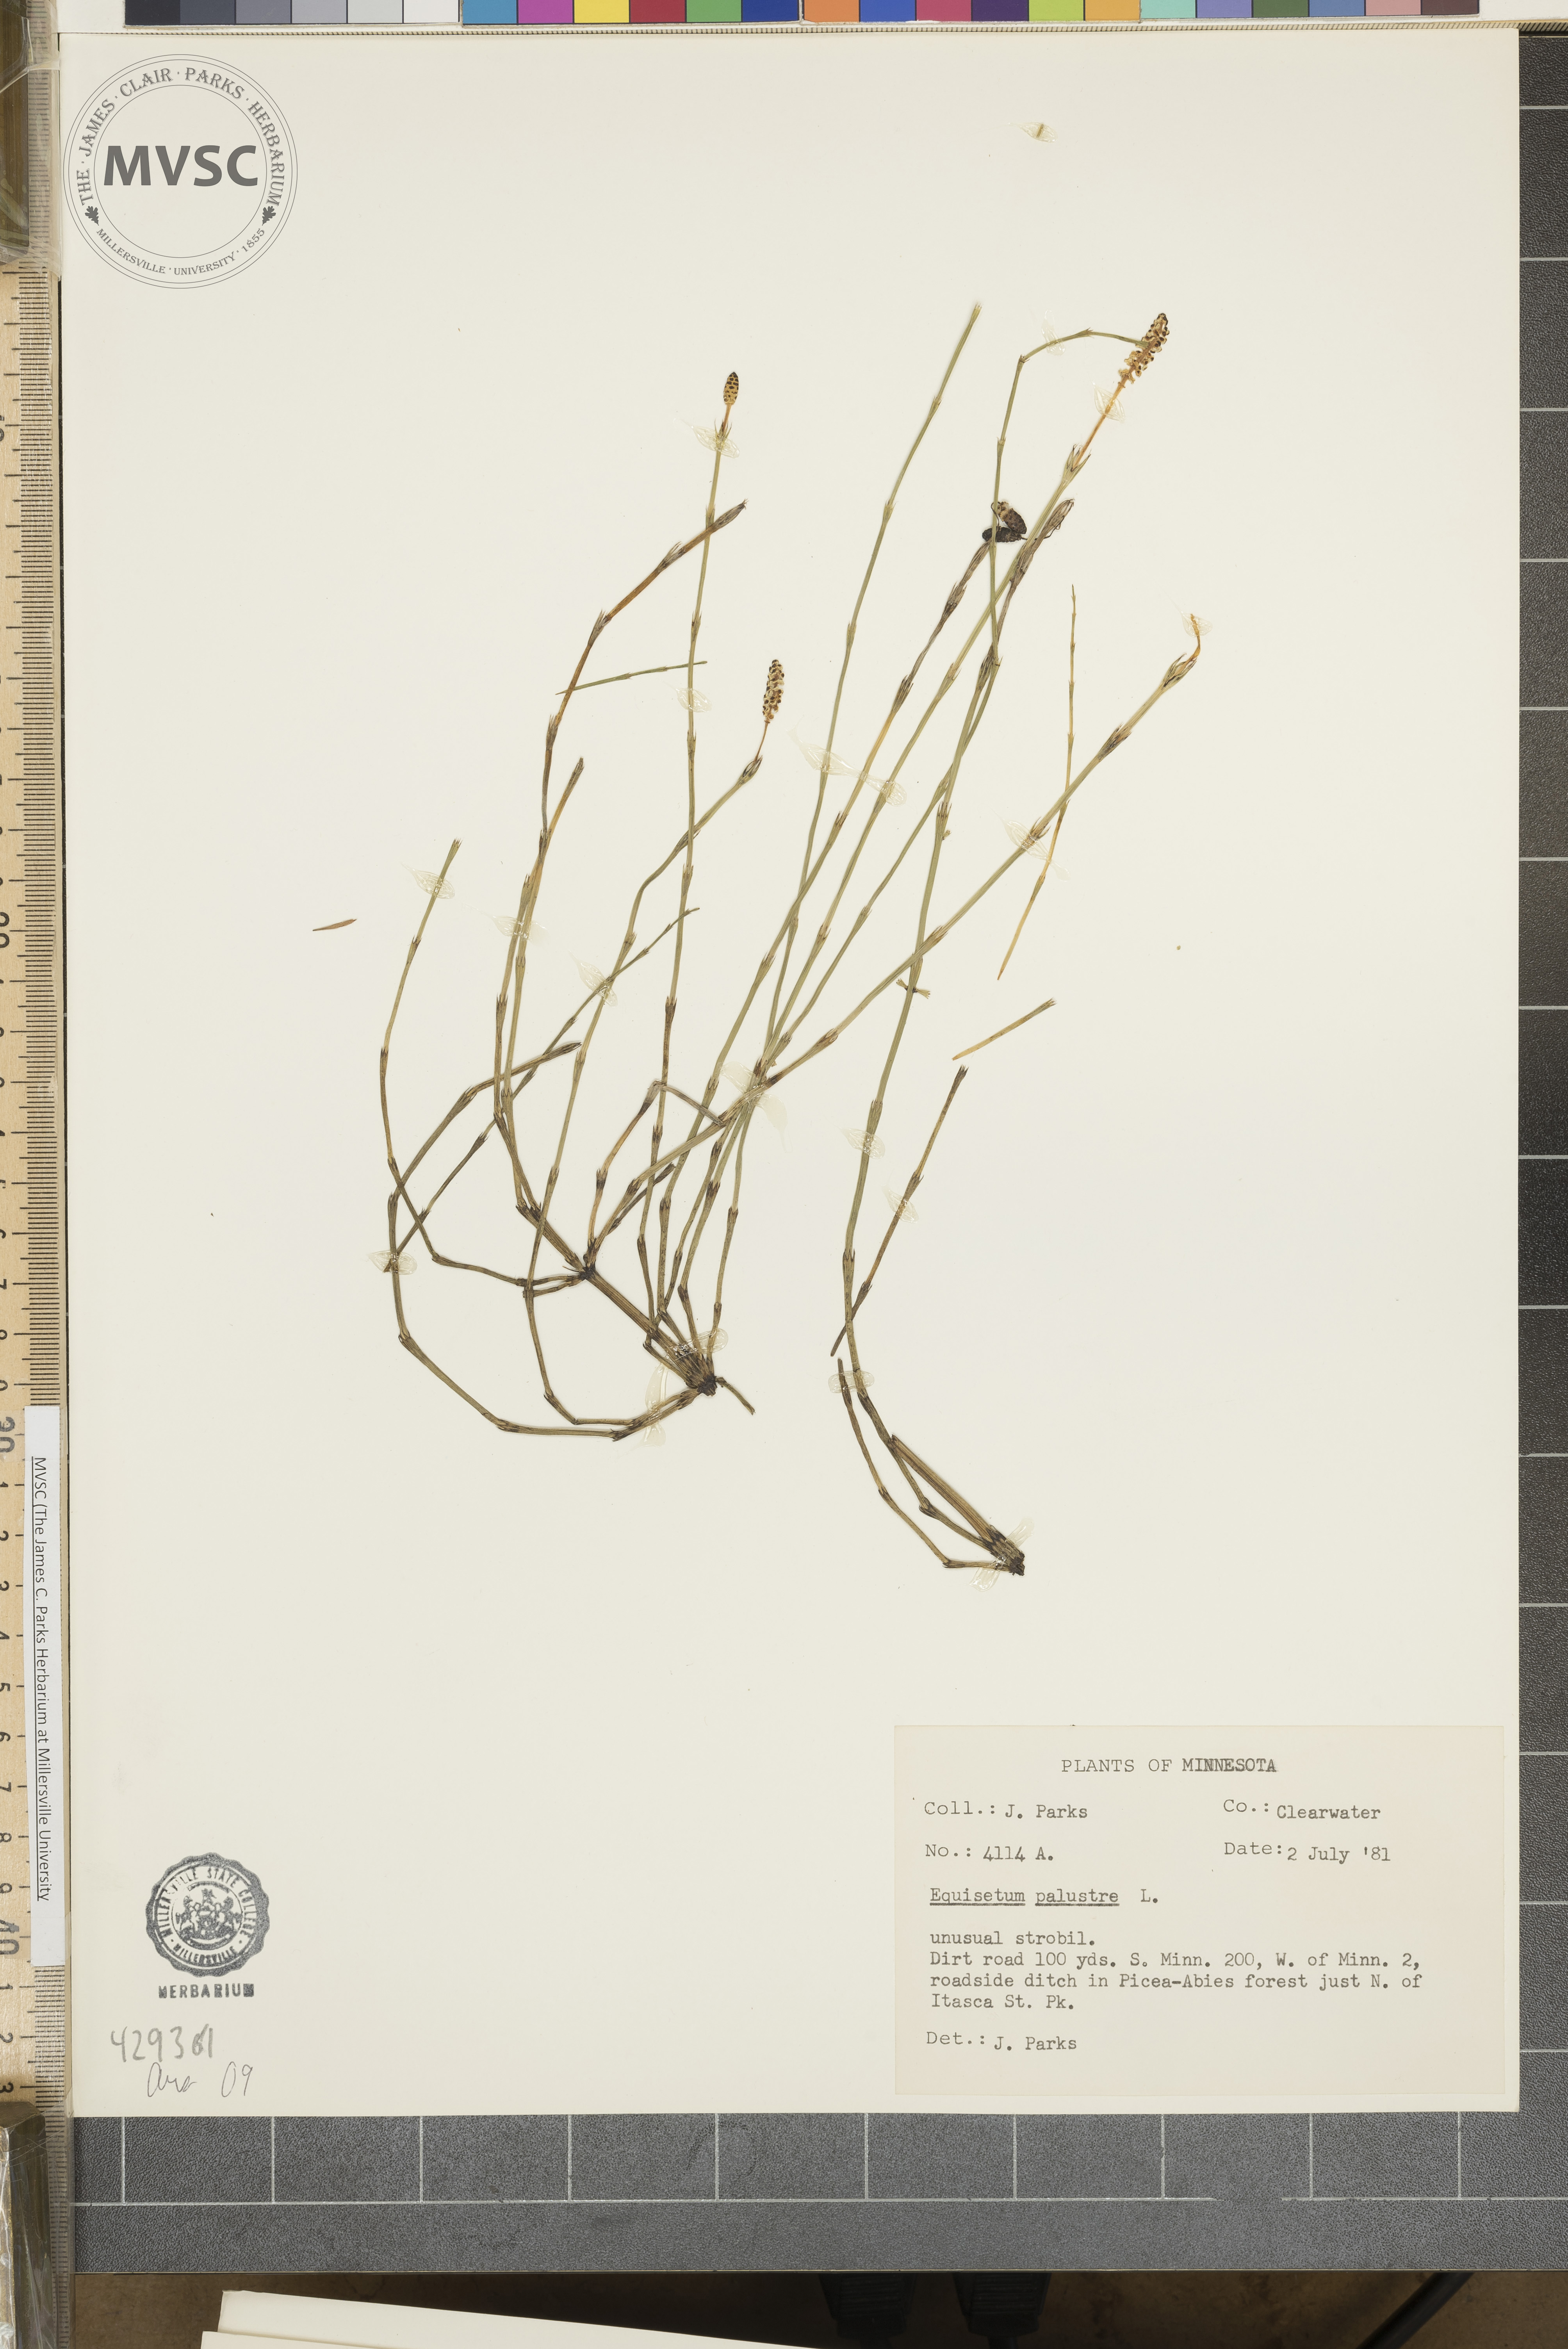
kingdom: Plantae
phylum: Tracheophyta
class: Polypodiopsida
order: Equisetales
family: Equisetaceae
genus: Equisetum
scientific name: Equisetum palustre
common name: Marsh horsetail
